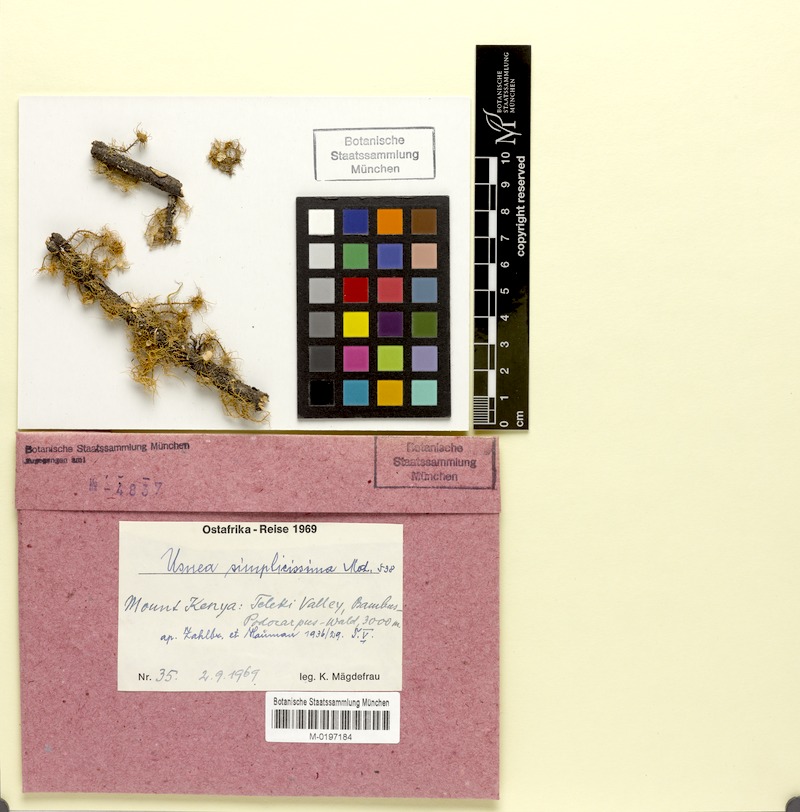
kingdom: Fungi
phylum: Ascomycota
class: Lecanoromycetes
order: Lecanorales
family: Parmeliaceae
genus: Usnea
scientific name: Usnea
